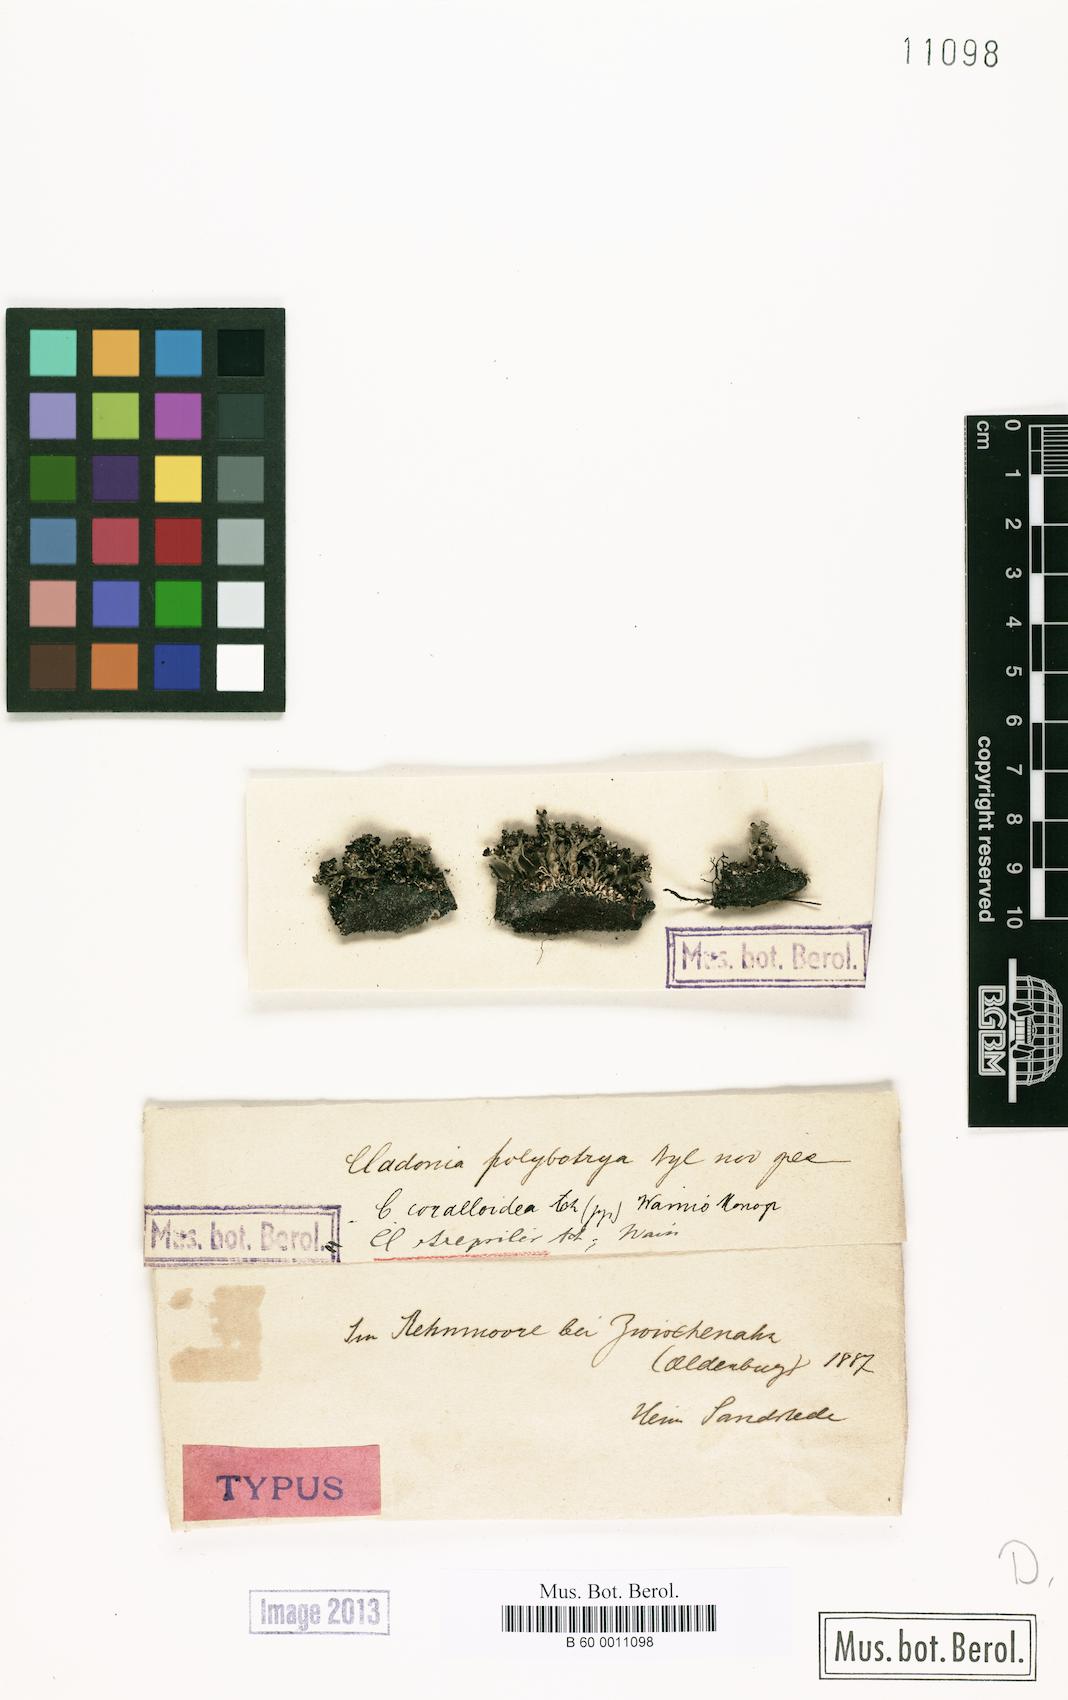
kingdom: Fungi
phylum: Ascomycota
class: Lecanoromycetes
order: Lecanorales
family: Cladoniaceae
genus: Cladonia
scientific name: Cladonia strepsilis
